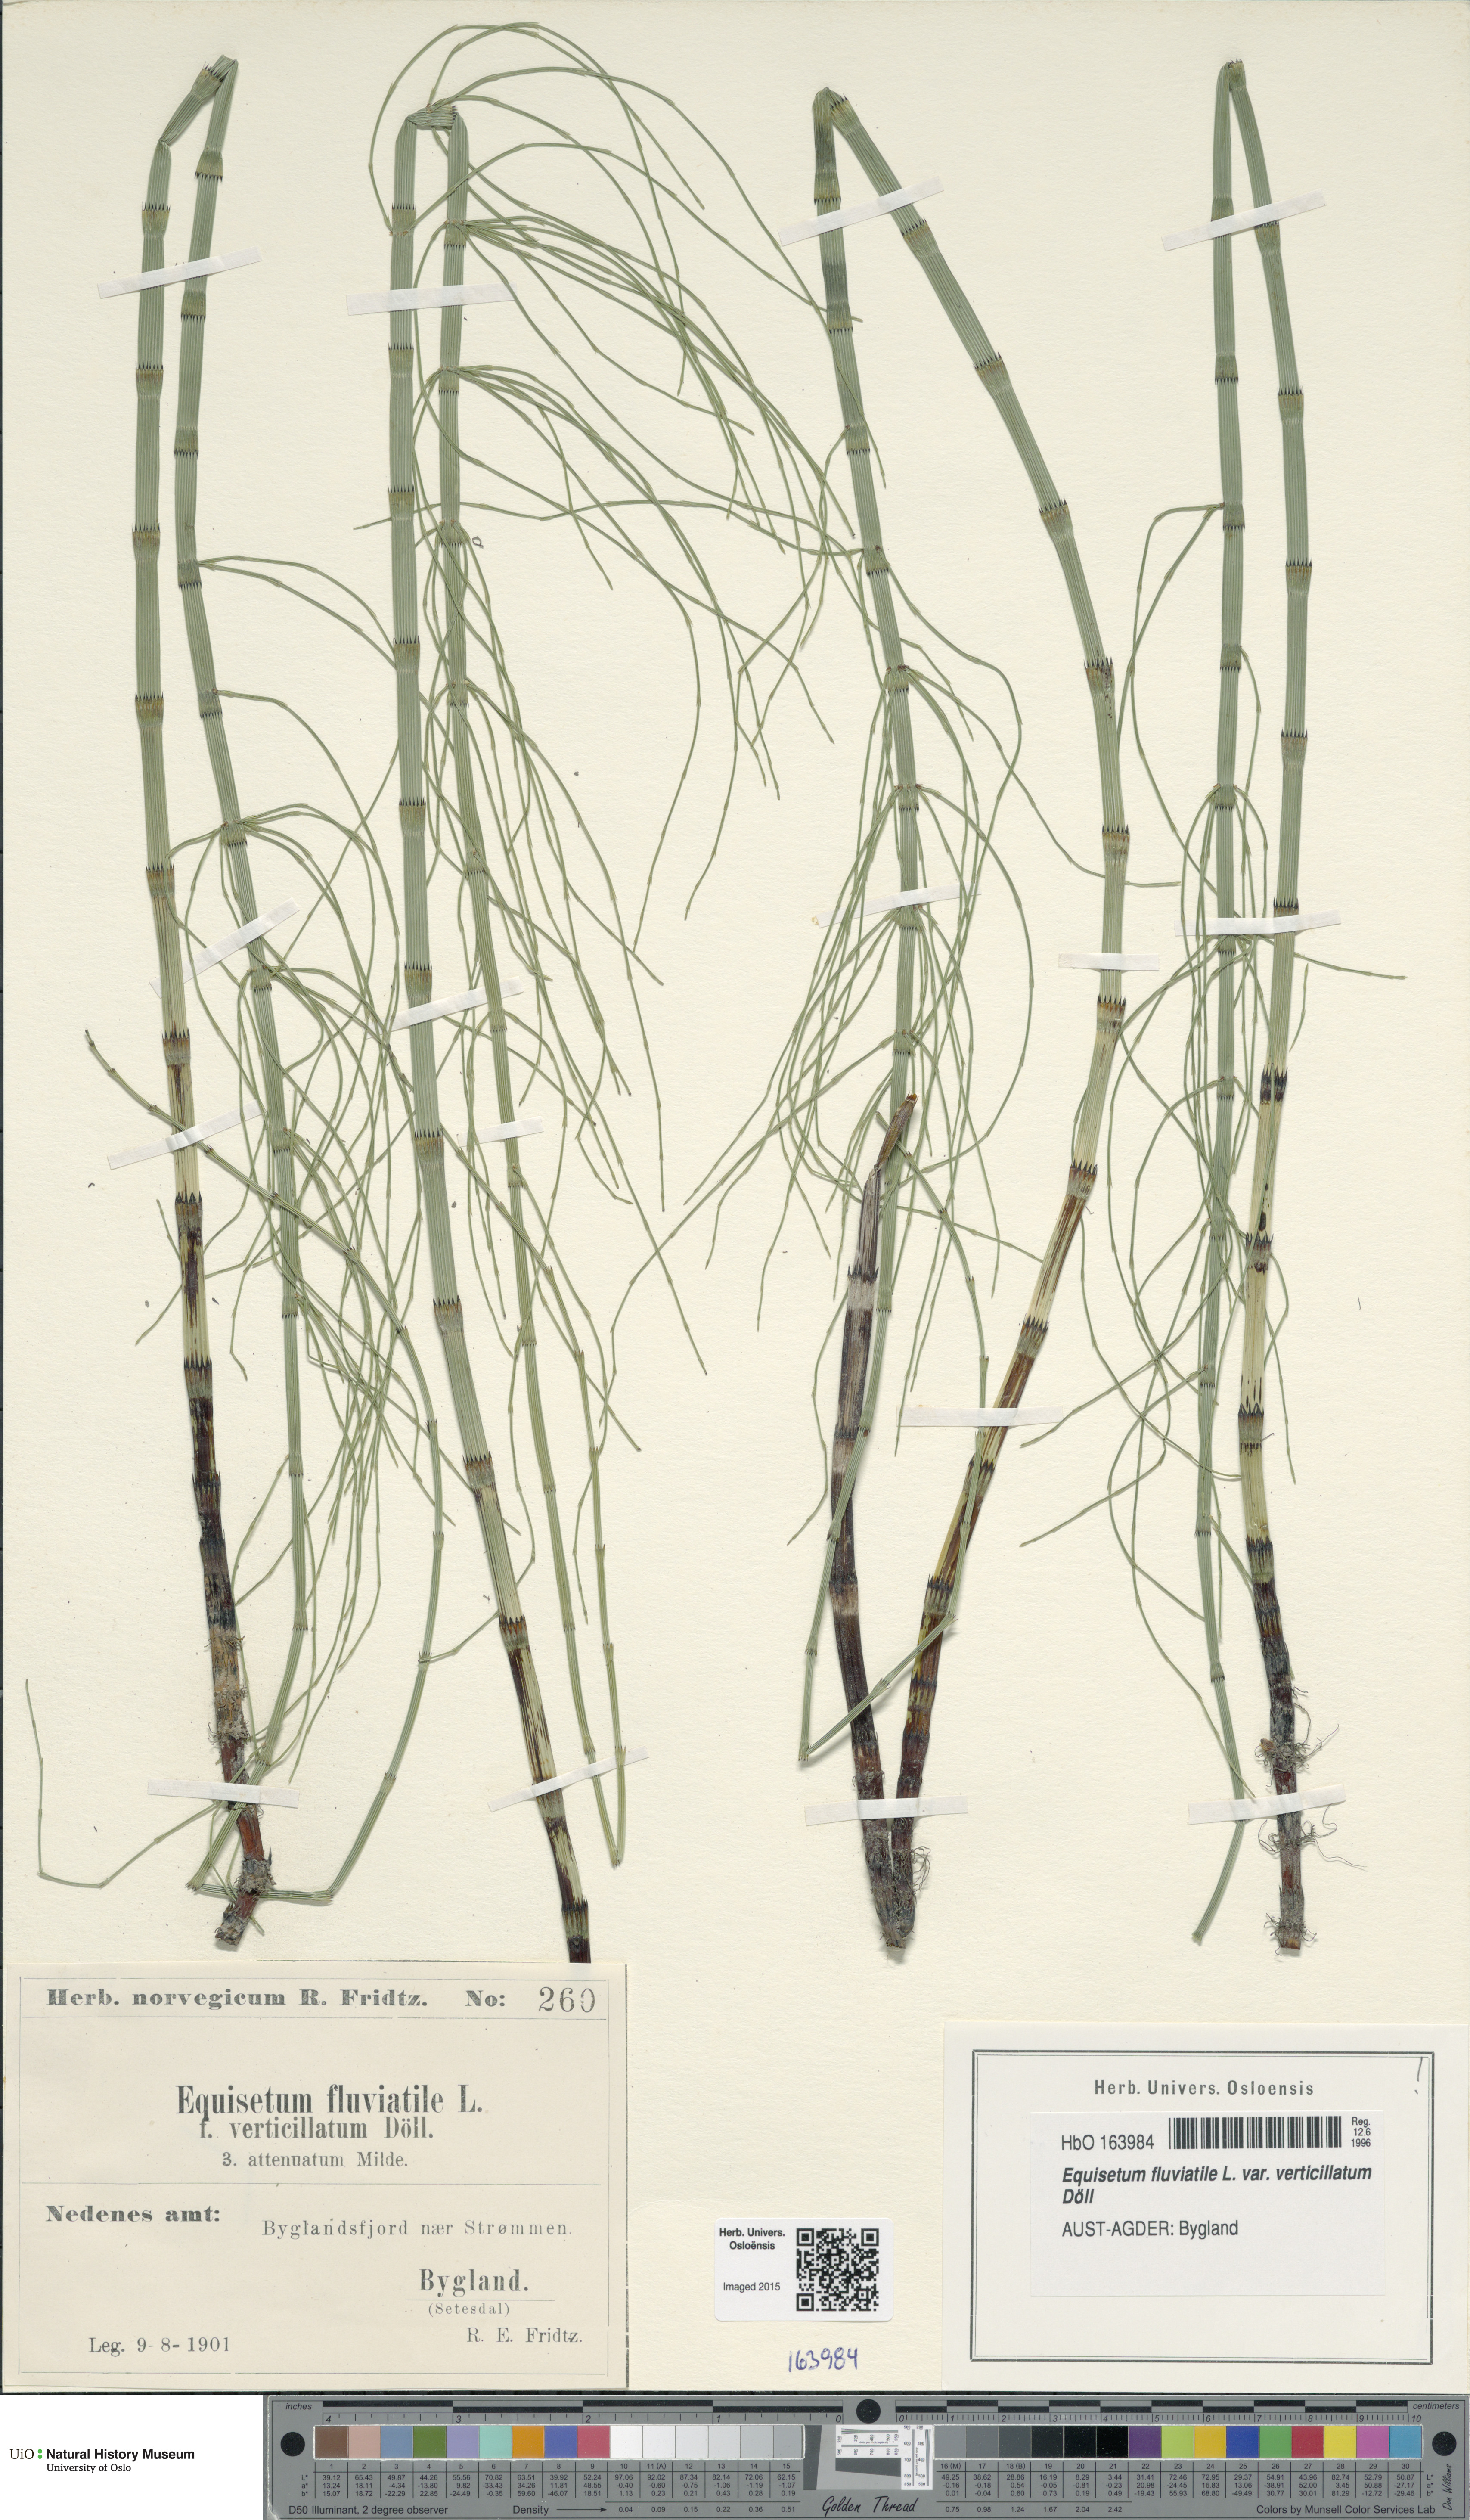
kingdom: Plantae
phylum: Tracheophyta
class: Polypodiopsida
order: Equisetales
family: Equisetaceae
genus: Equisetum
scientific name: Equisetum fluviatile
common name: Water horsetail
